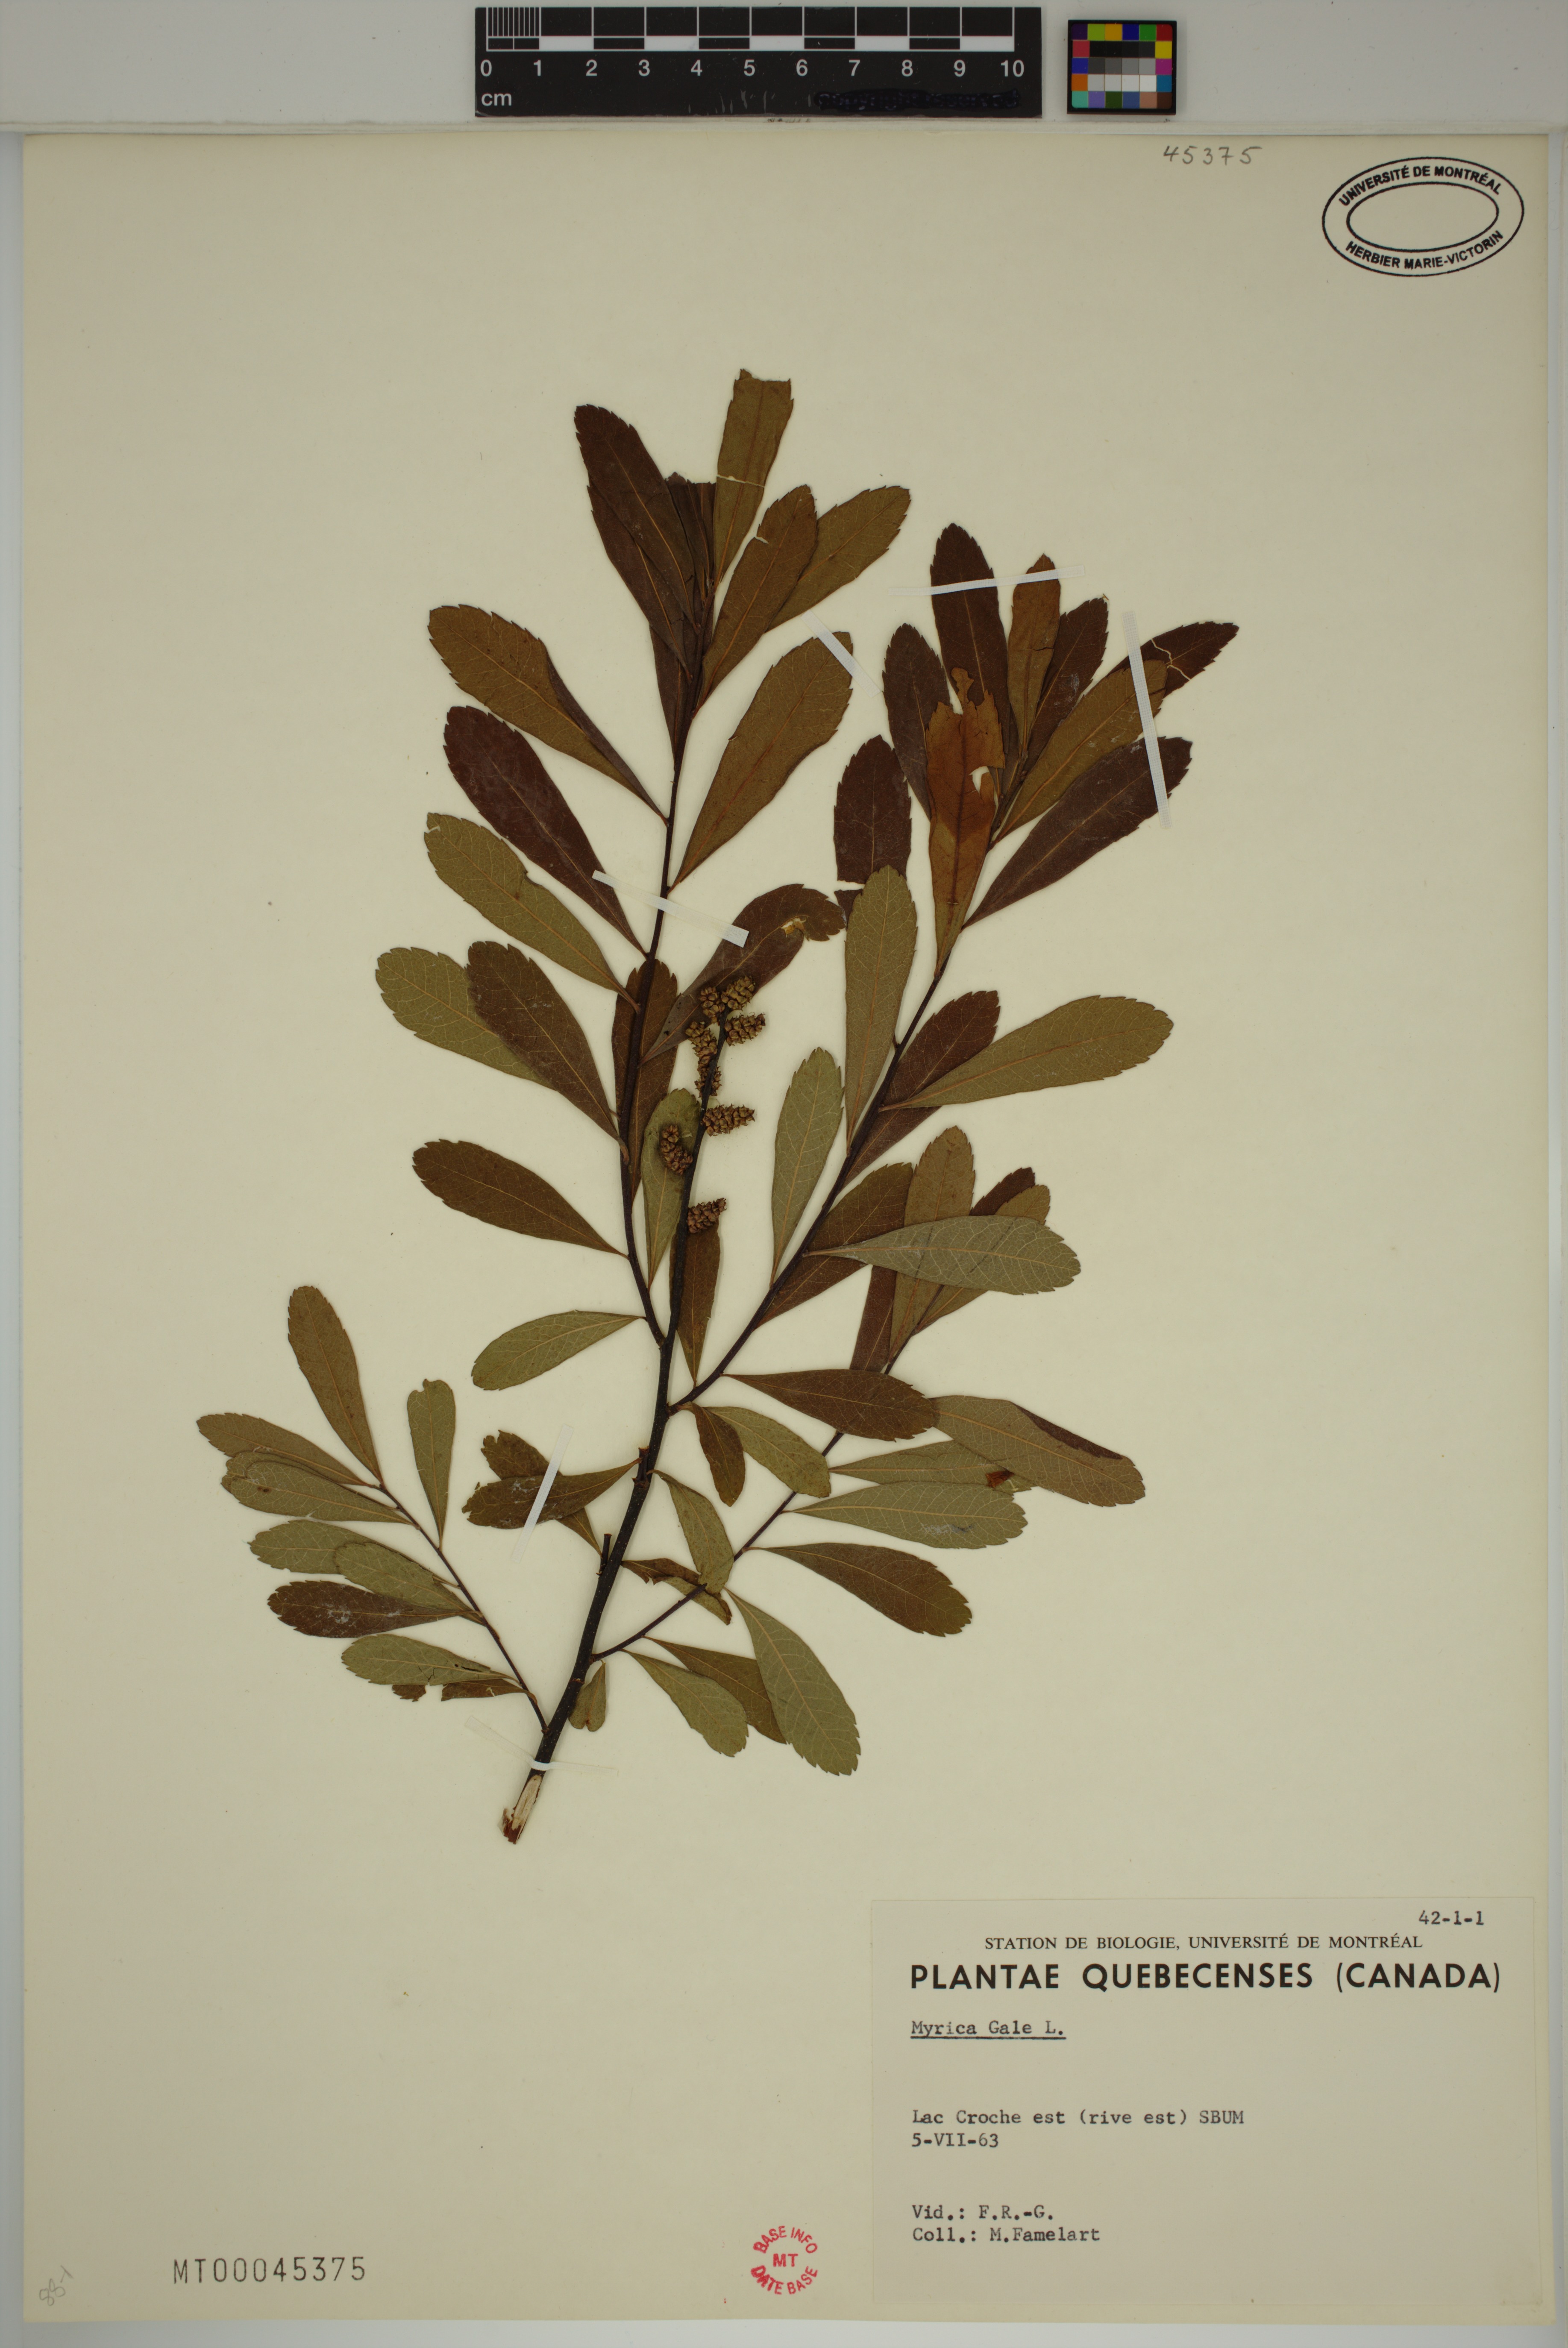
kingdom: Plantae
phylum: Tracheophyta
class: Magnoliopsida
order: Fagales
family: Myricaceae
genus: Myrica
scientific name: Myrica gale
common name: Sweet gale
